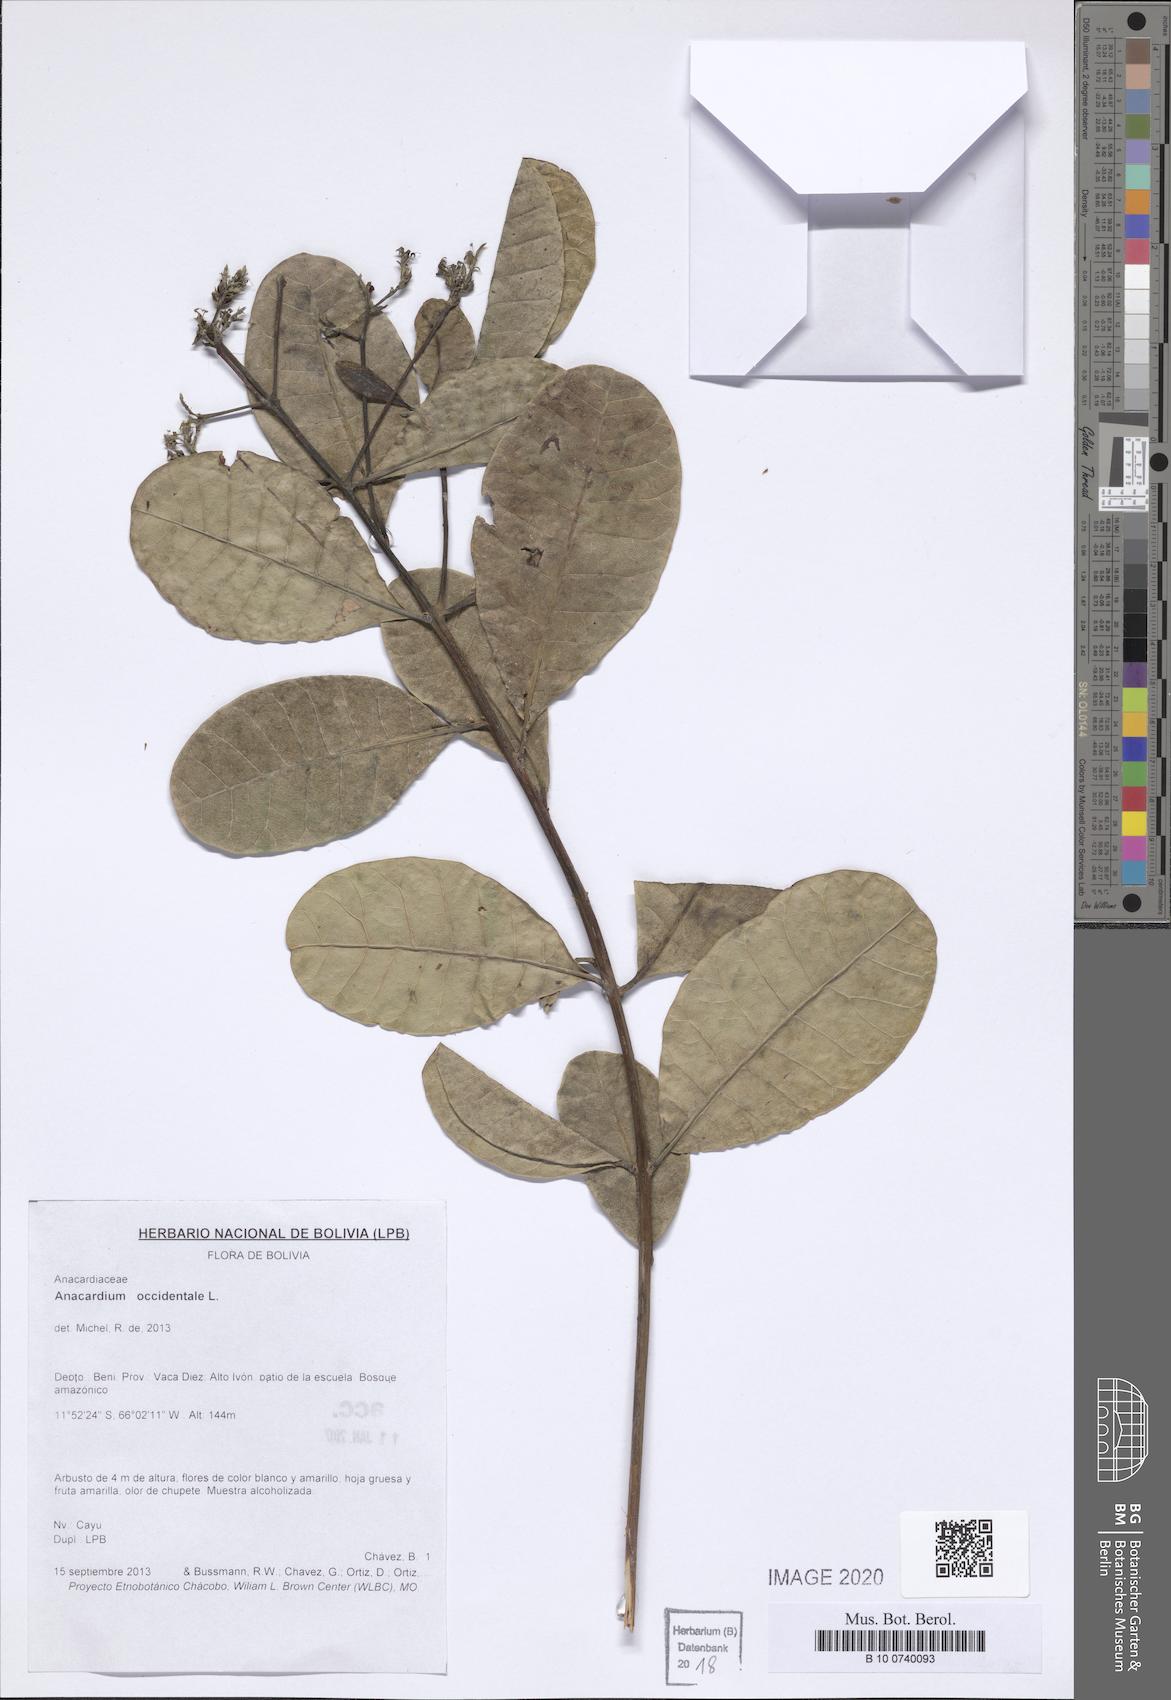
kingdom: Plantae
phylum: Tracheophyta
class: Magnoliopsida
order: Sapindales
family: Anacardiaceae
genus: Anacardium
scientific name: Anacardium occidentale
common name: Cashew
